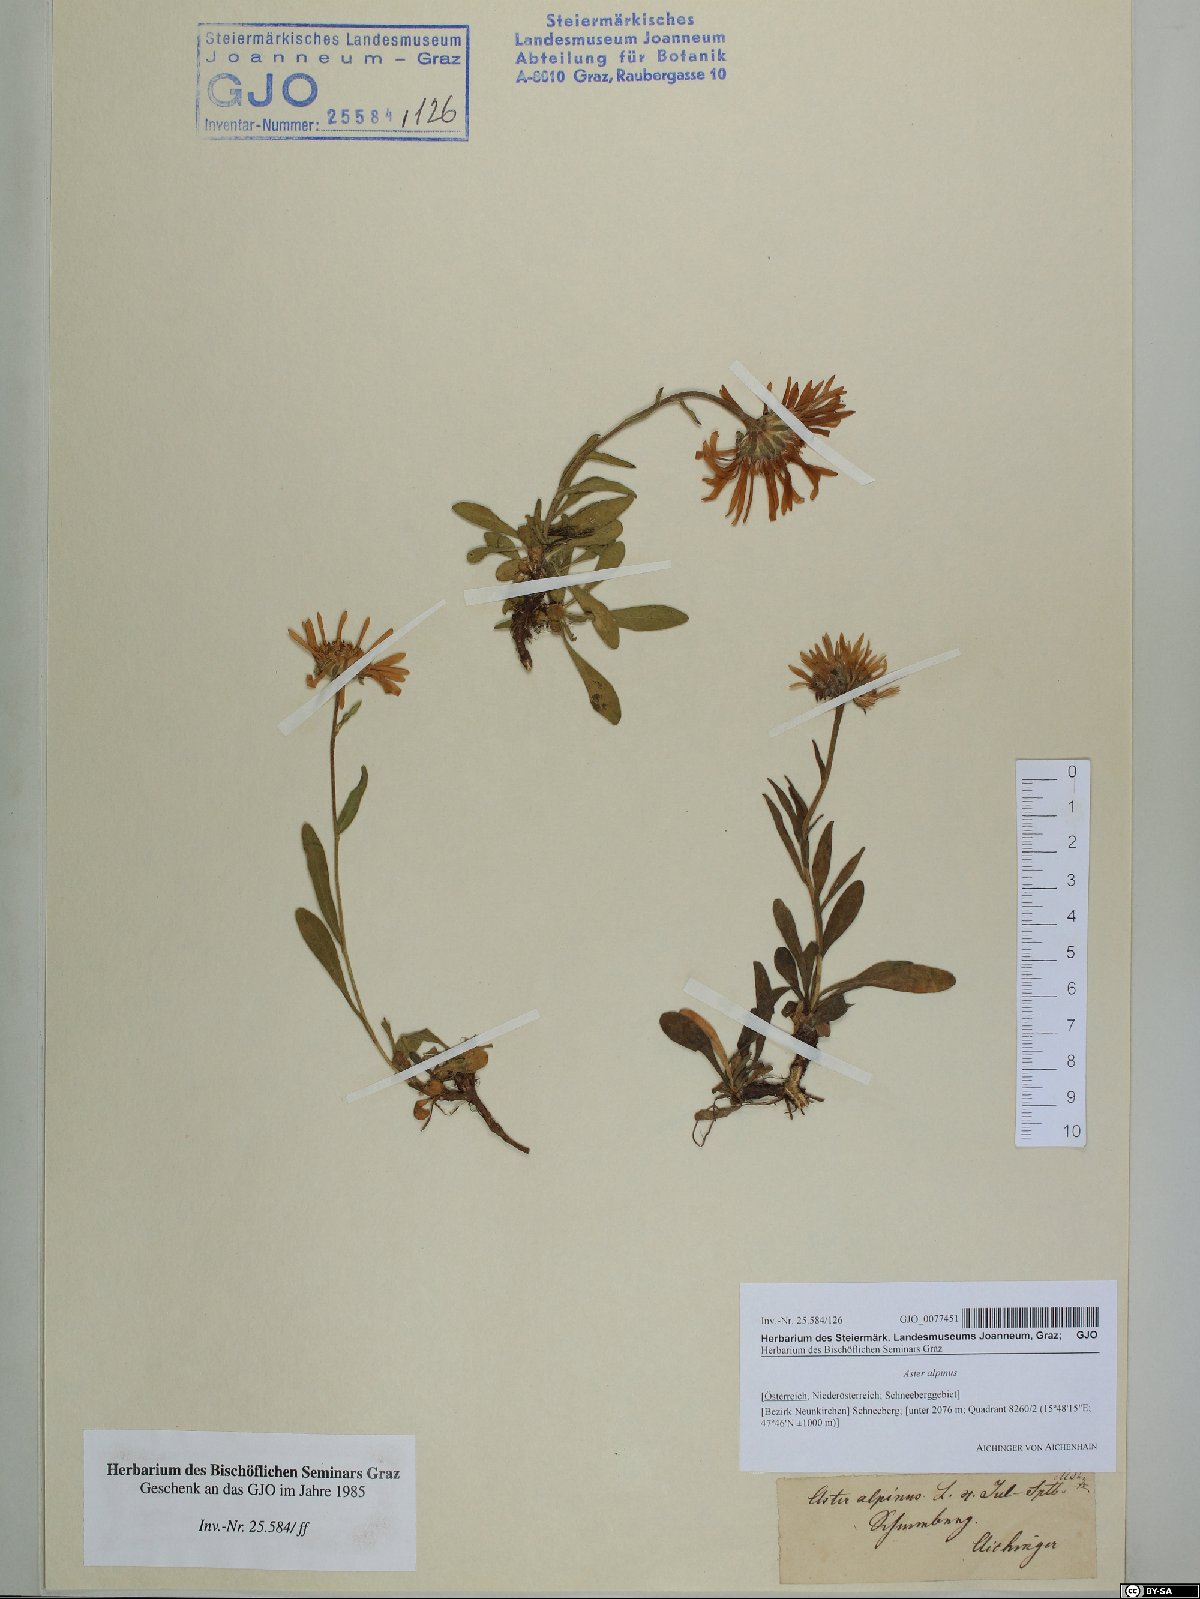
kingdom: Plantae
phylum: Tracheophyta
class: Magnoliopsida
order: Asterales
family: Asteraceae
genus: Aster
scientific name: Aster alpinus
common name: Alpine aster
